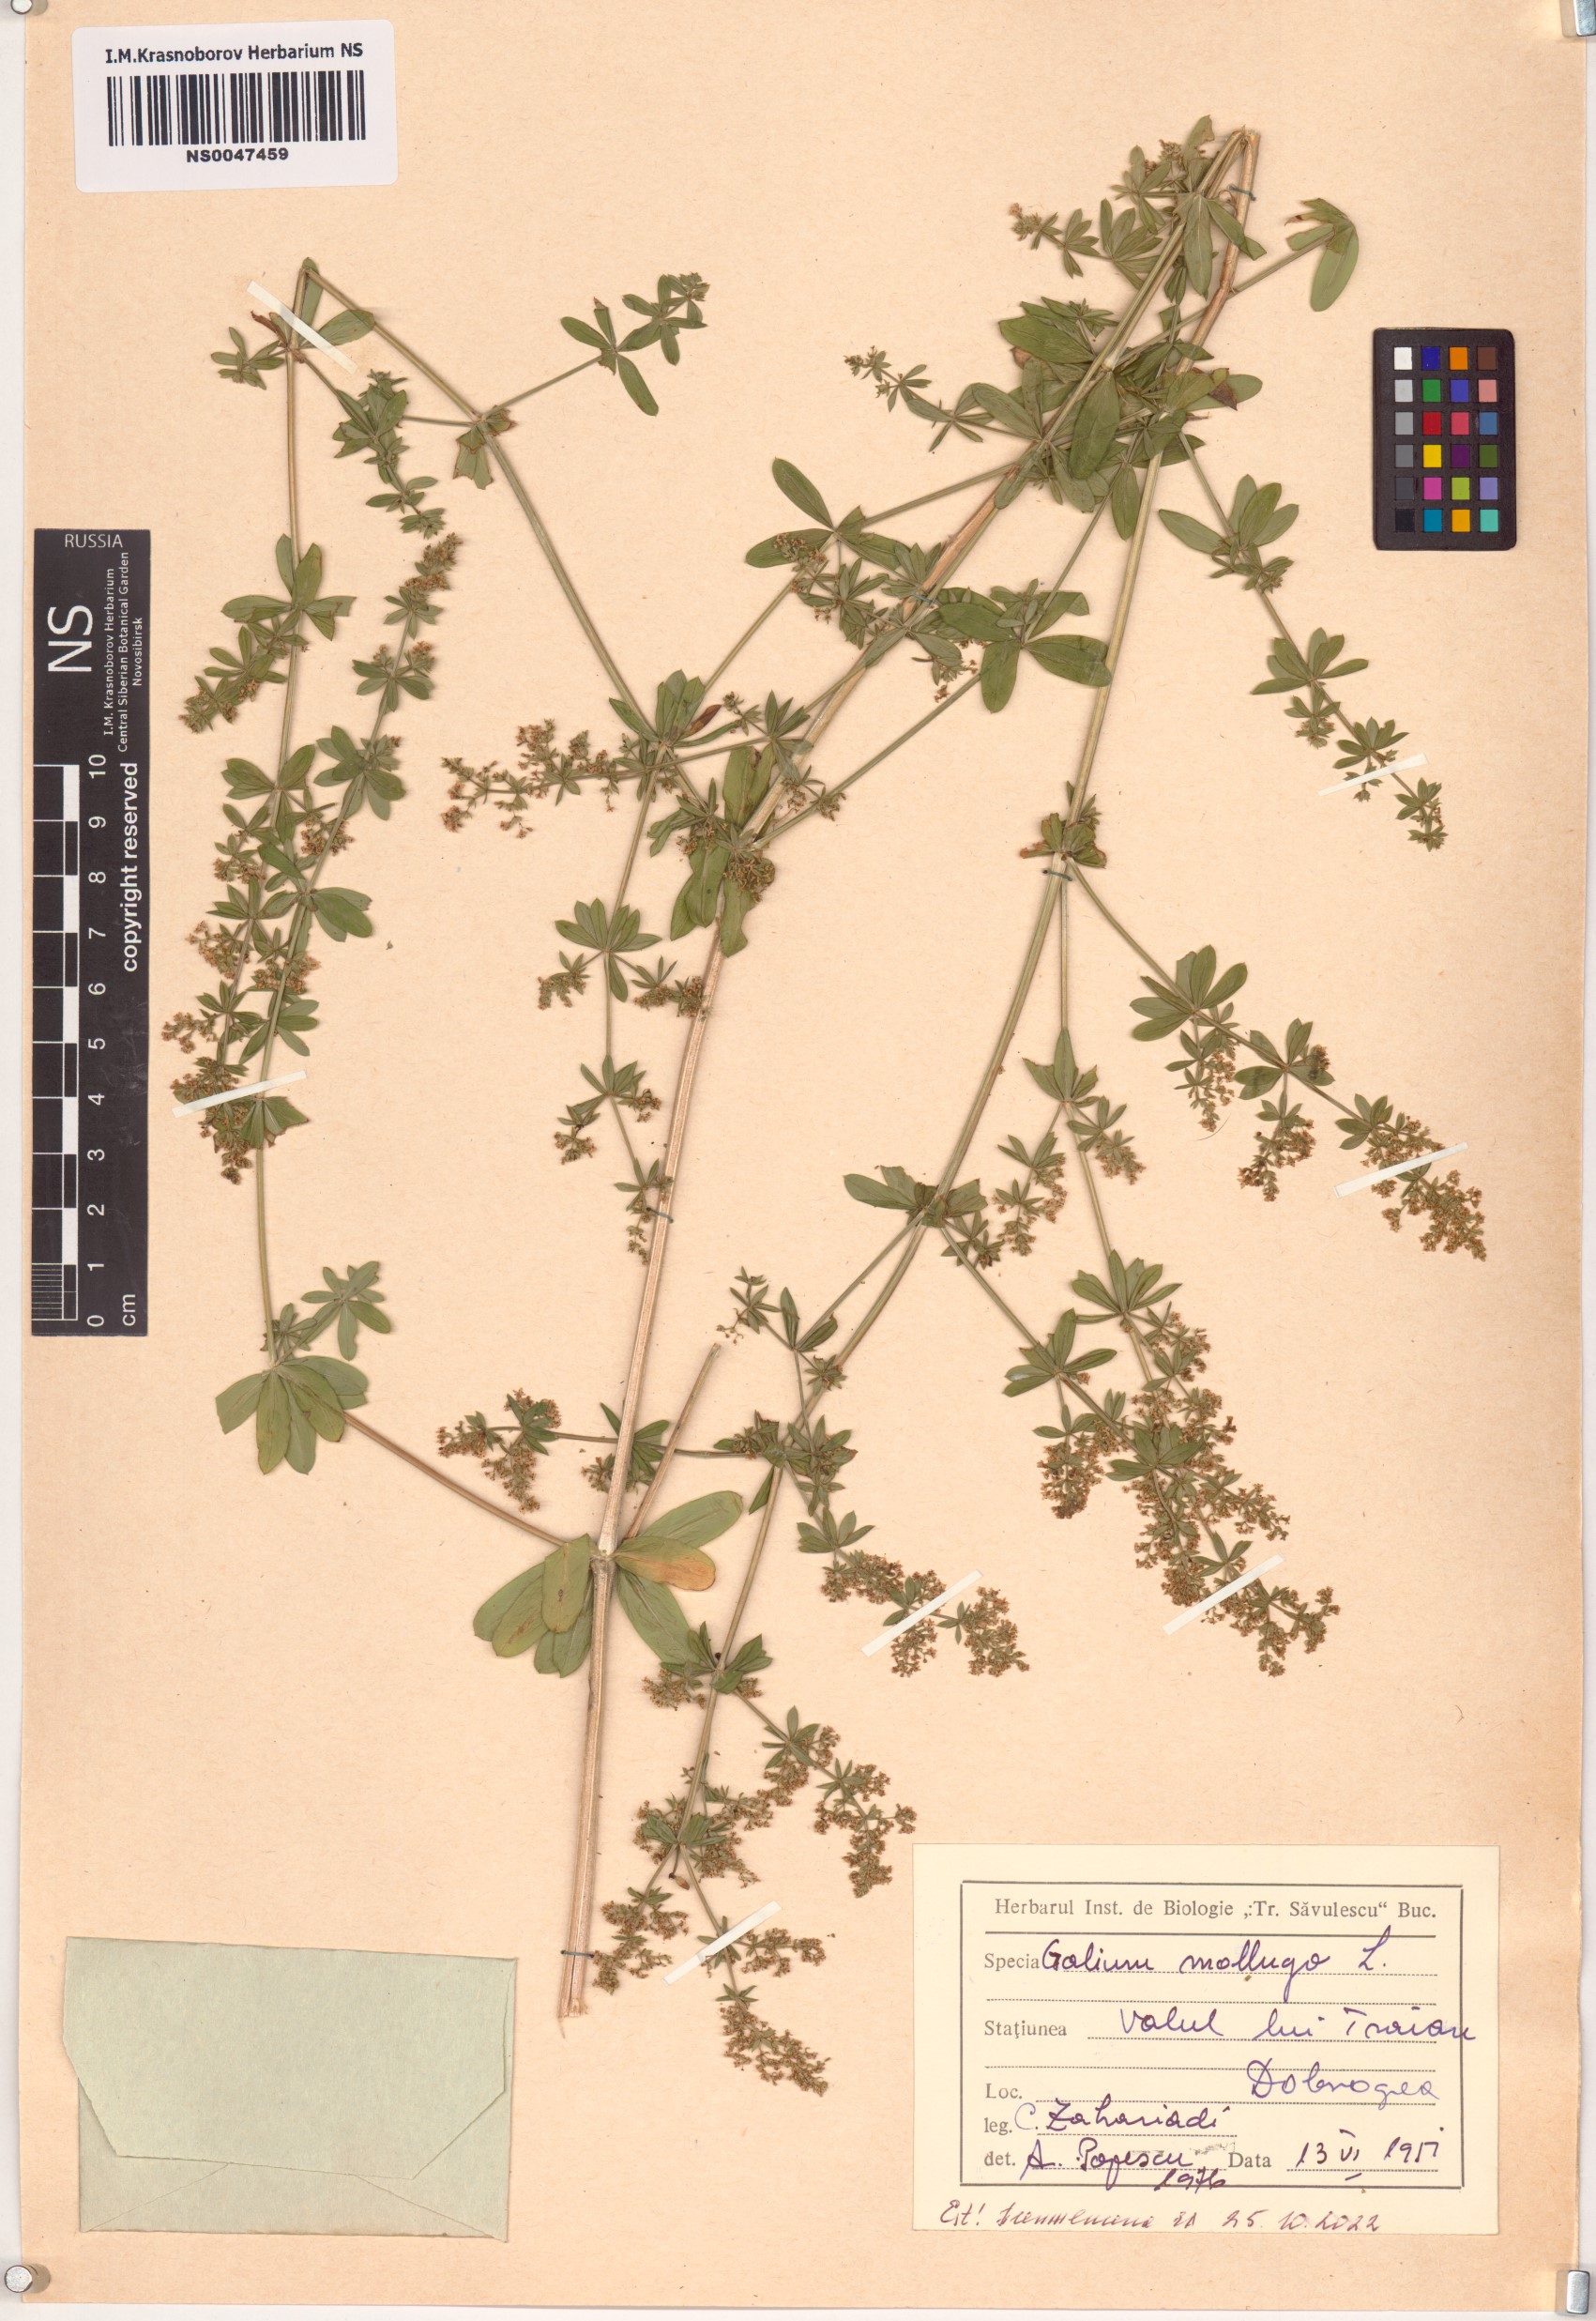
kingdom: Plantae
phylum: Tracheophyta
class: Magnoliopsida
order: Gentianales
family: Rubiaceae
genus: Galium
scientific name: Galium mollugo
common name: Hedge bedstraw
